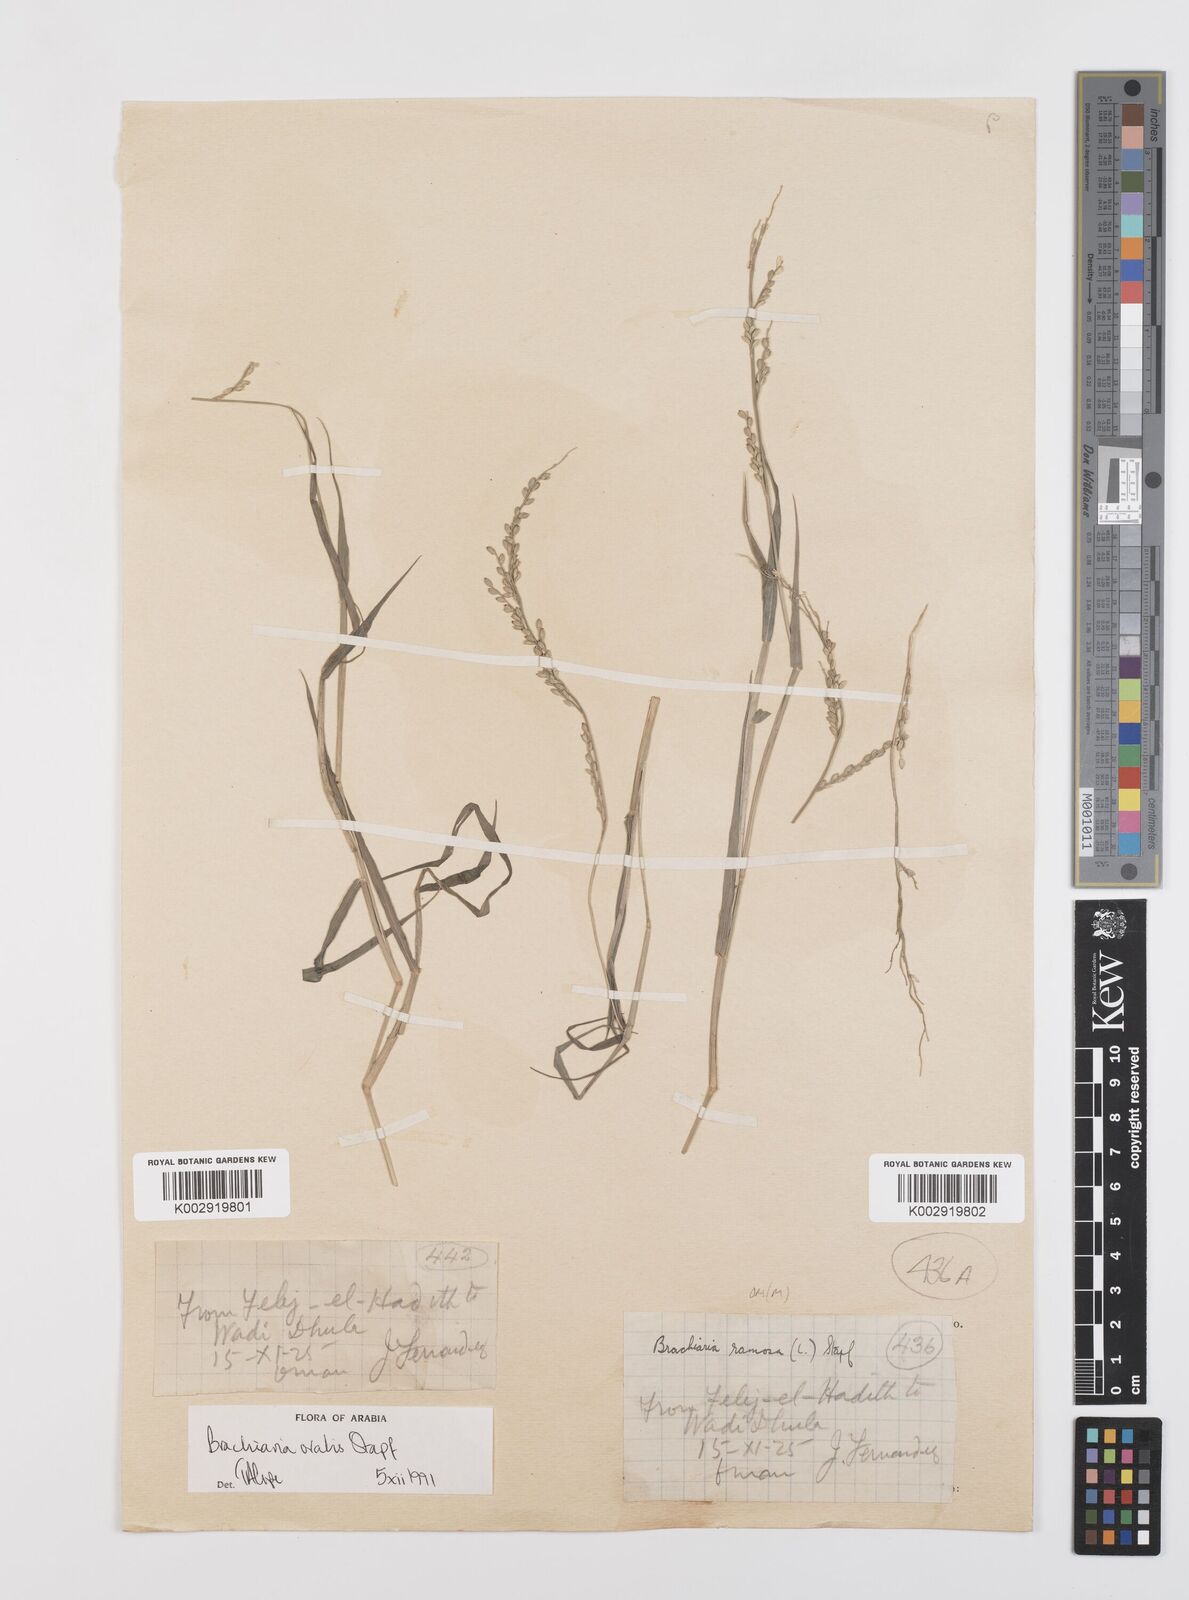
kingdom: Plantae
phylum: Tracheophyta
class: Liliopsida
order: Poales
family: Poaceae
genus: Urochloa
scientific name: Urochloa ovalis
